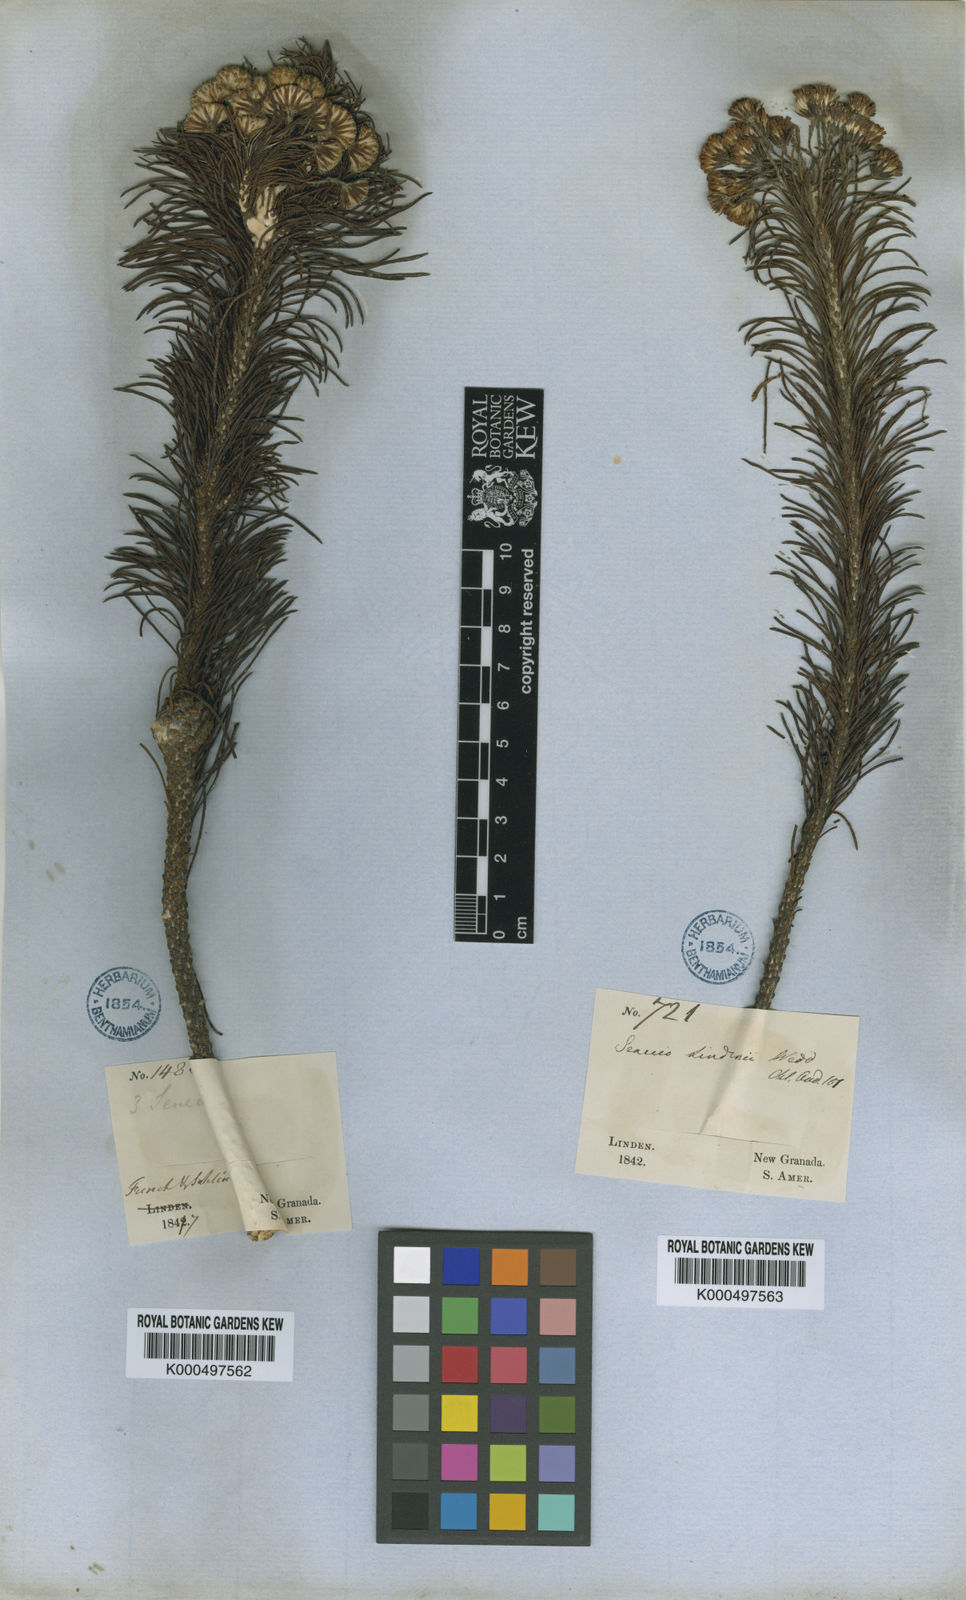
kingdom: Plantae
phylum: Tracheophyta
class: Magnoliopsida
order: Asterales
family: Asteraceae
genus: Monticalia
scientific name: Monticalia lindenii
